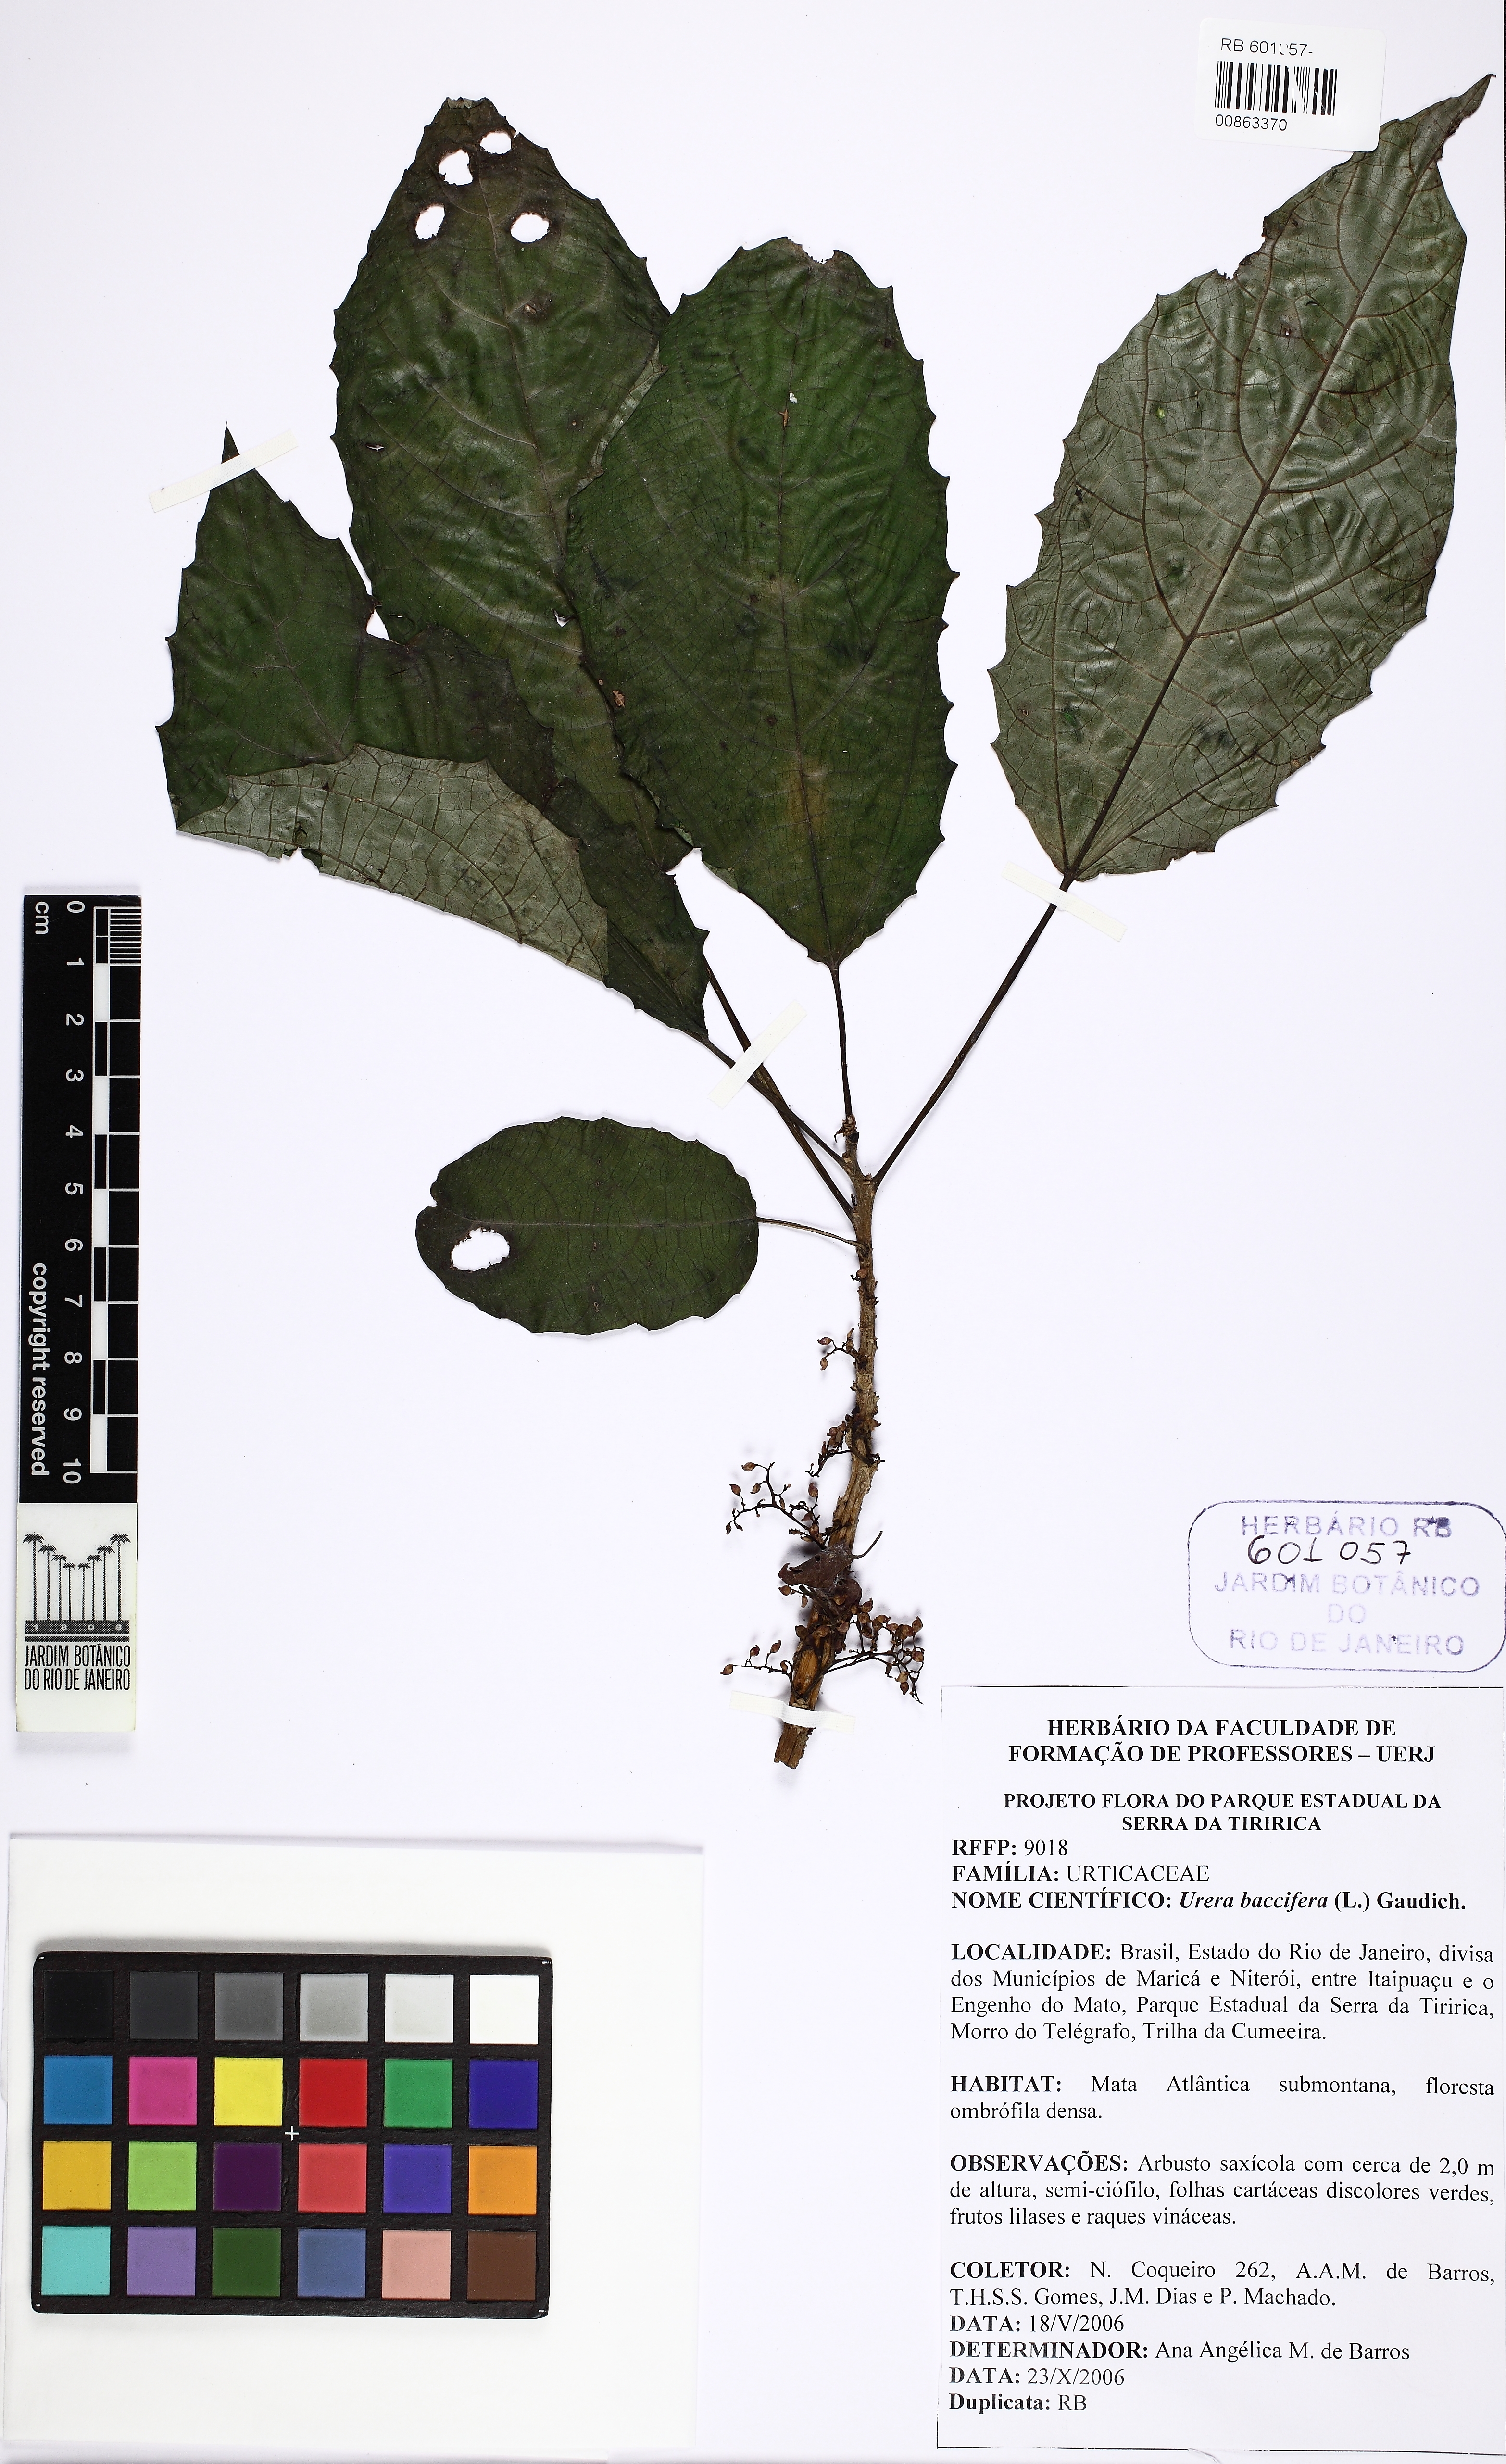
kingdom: Plantae
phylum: Tracheophyta
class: Magnoliopsida
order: Rosales
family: Urticaceae
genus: Urera
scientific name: Urera nitida
